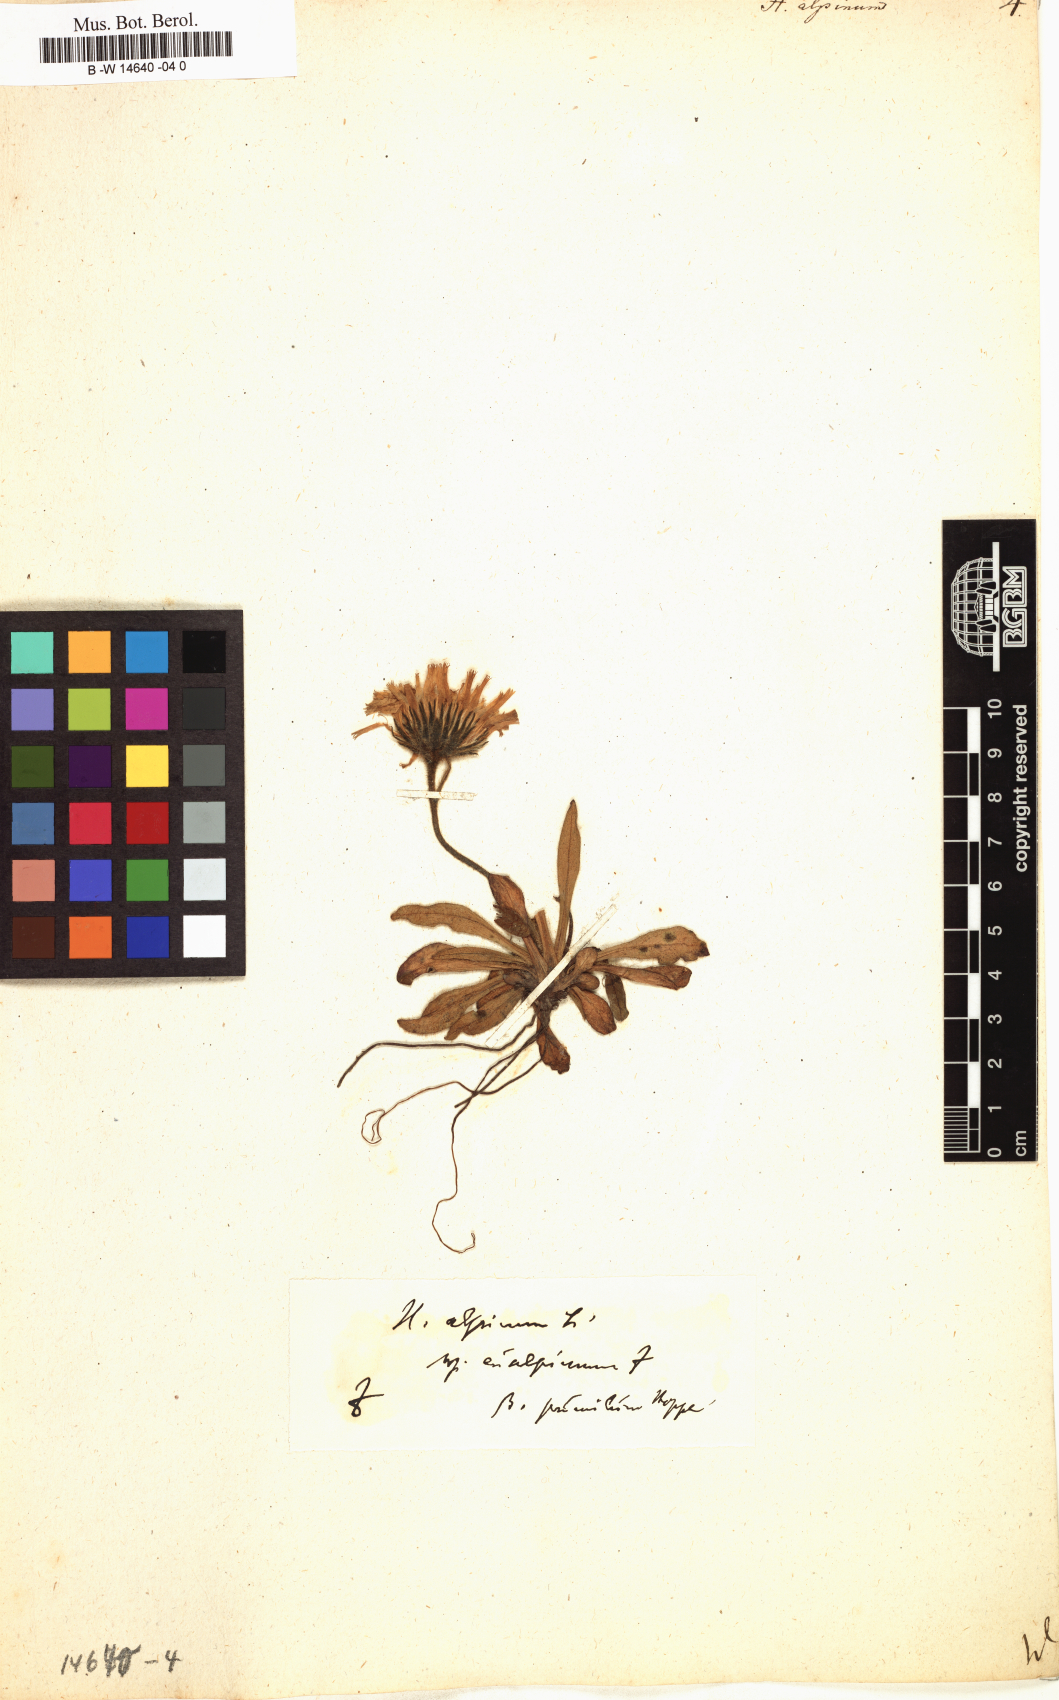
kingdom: Plantae
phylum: Tracheophyta
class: Magnoliopsida
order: Asterales
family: Asteraceae
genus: Hieracium
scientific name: Hieracium alpinum
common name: Alpine hawkweed
